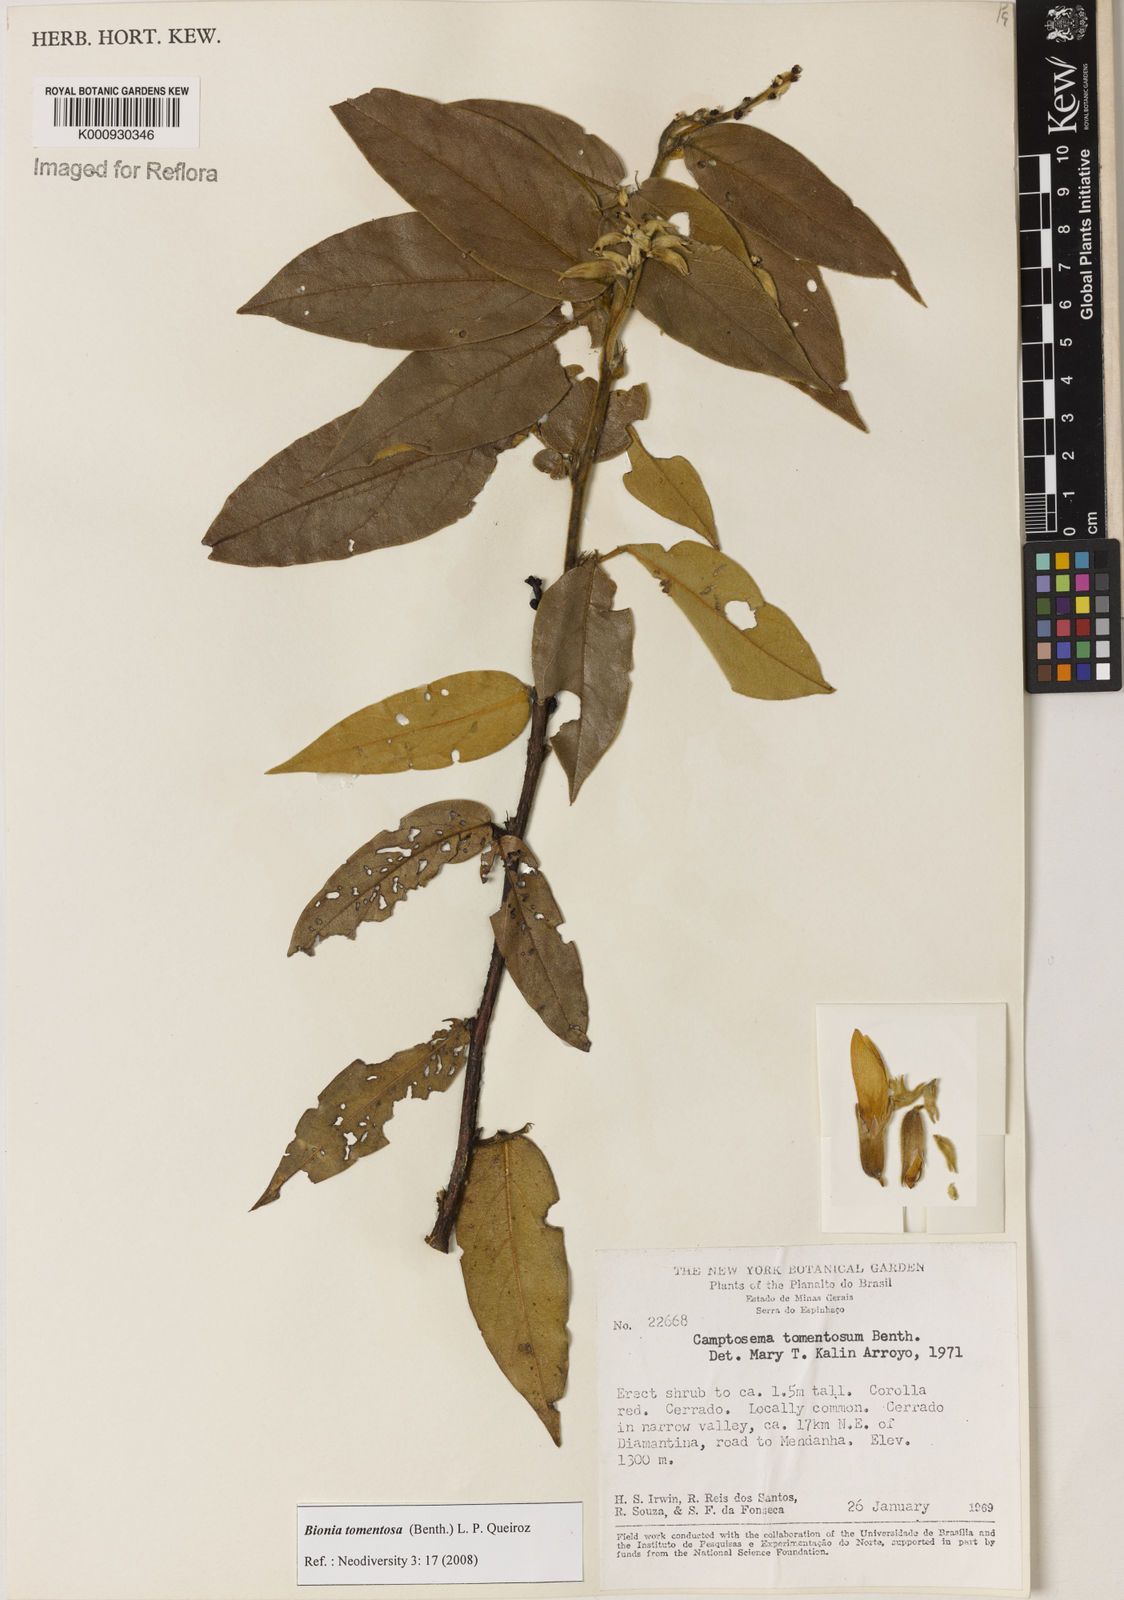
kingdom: Plantae
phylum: Tracheophyta
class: Magnoliopsida
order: Fabales
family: Fabaceae
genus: Camptosema
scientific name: Camptosema tomentosum
